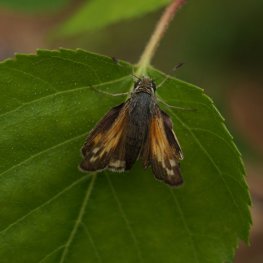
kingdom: Animalia
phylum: Arthropoda
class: Insecta
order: Lepidoptera
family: Hesperiidae
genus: Hesperia
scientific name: Hesperia sassacus
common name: Sassacus Skipper
